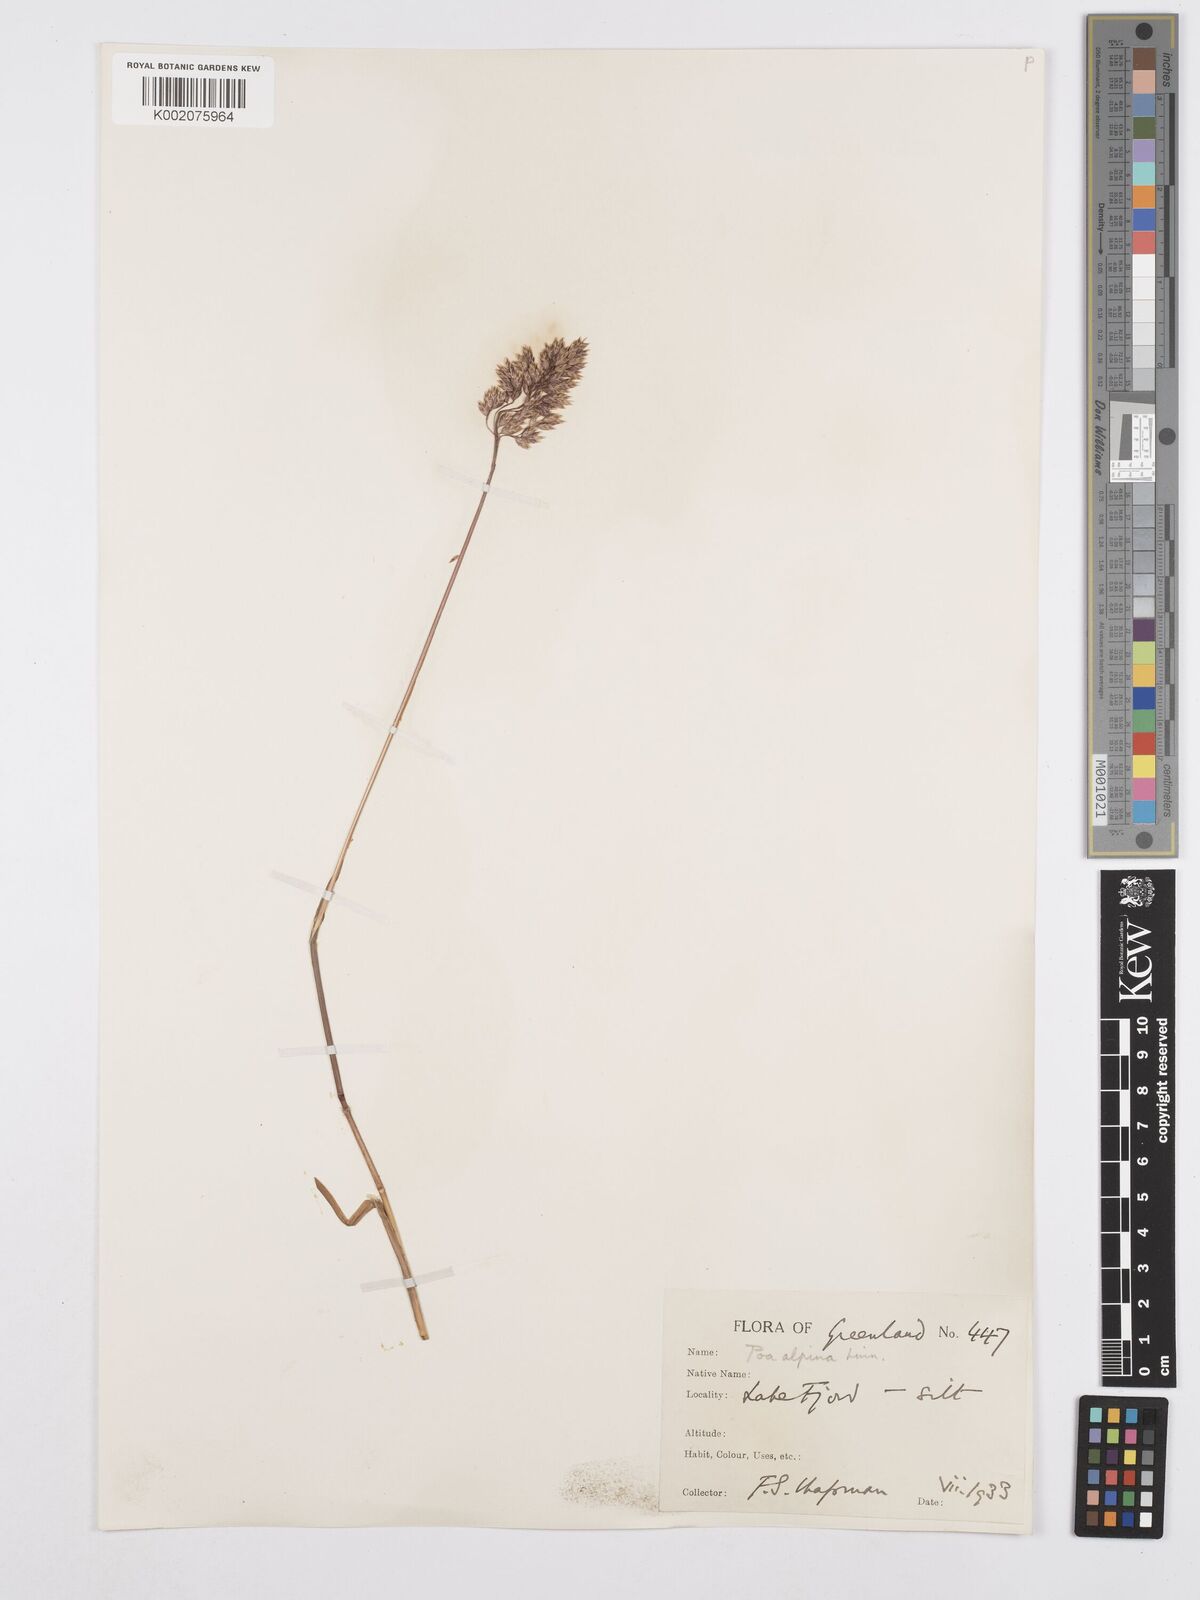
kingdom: Plantae
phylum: Tracheophyta
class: Liliopsida
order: Poales
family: Poaceae
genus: Poa
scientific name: Poa alpina
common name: Alpine bluegrass
